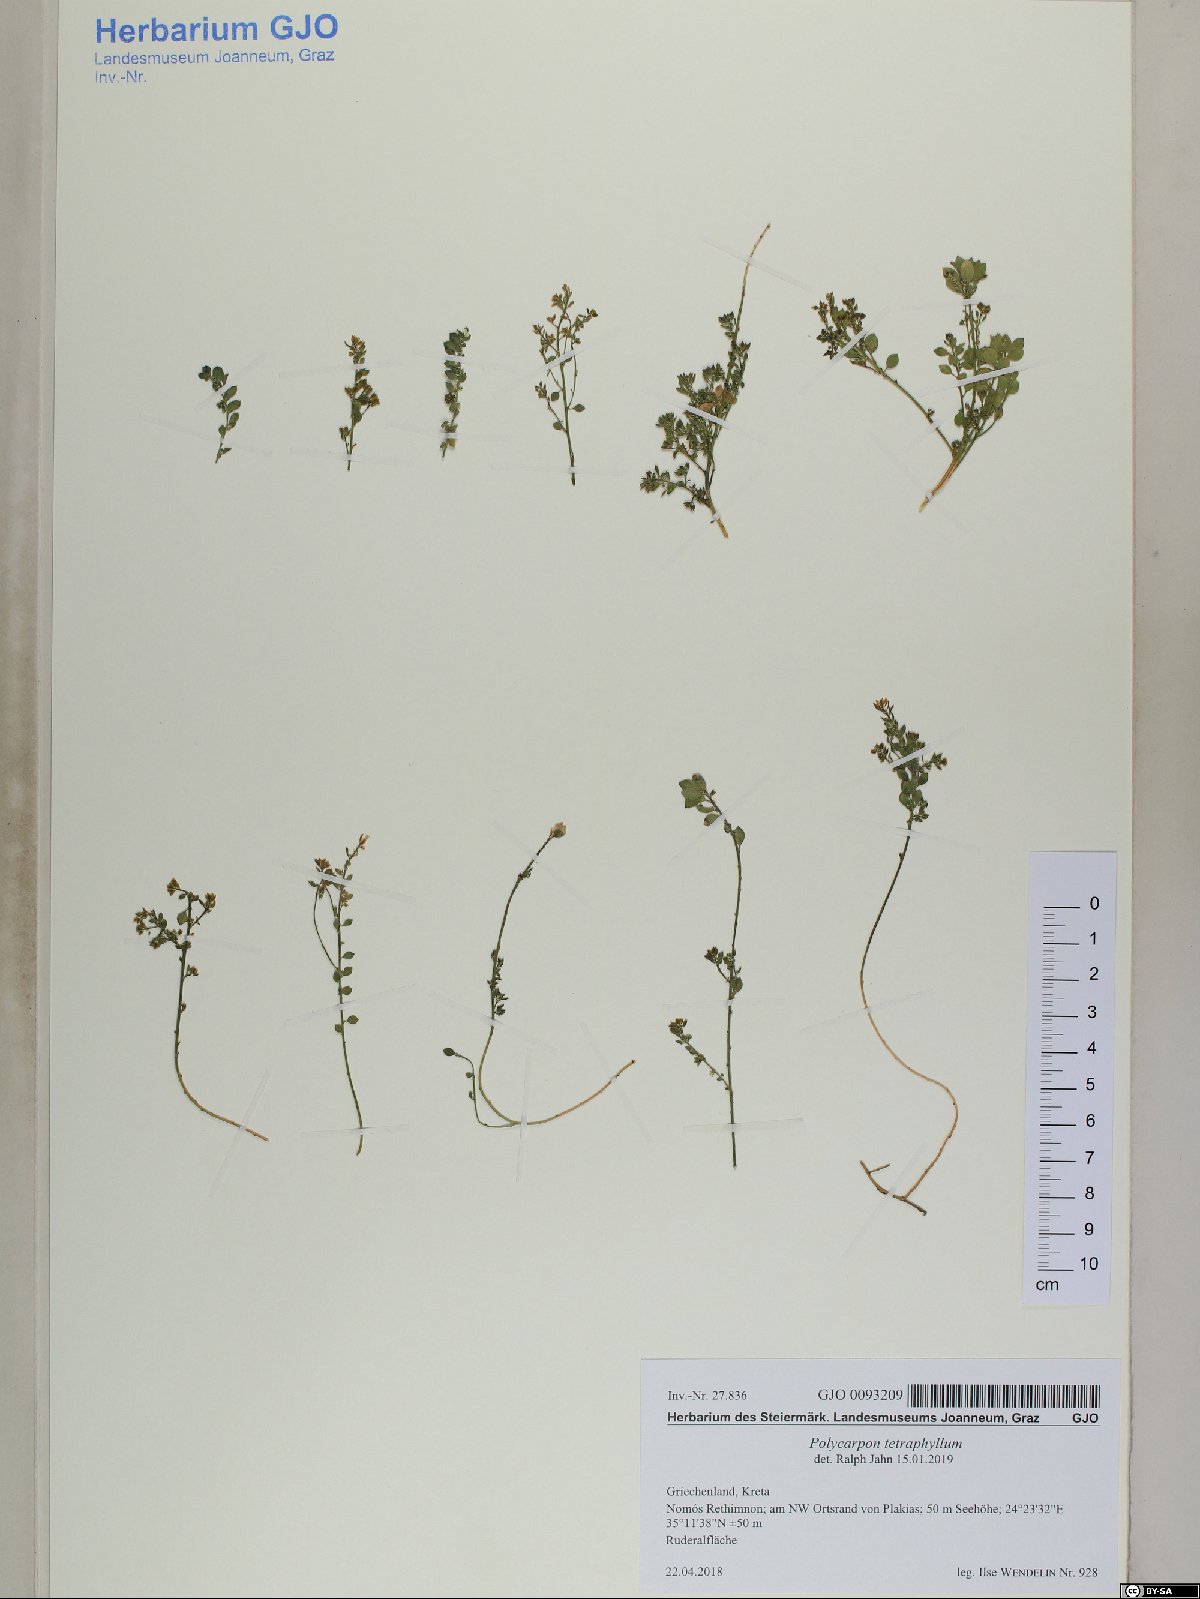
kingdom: Plantae
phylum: Tracheophyta
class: Magnoliopsida
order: Caryophyllales
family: Caryophyllaceae
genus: Polycarpon
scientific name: Polycarpon tetraphyllum
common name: Four-leaved all-seed
